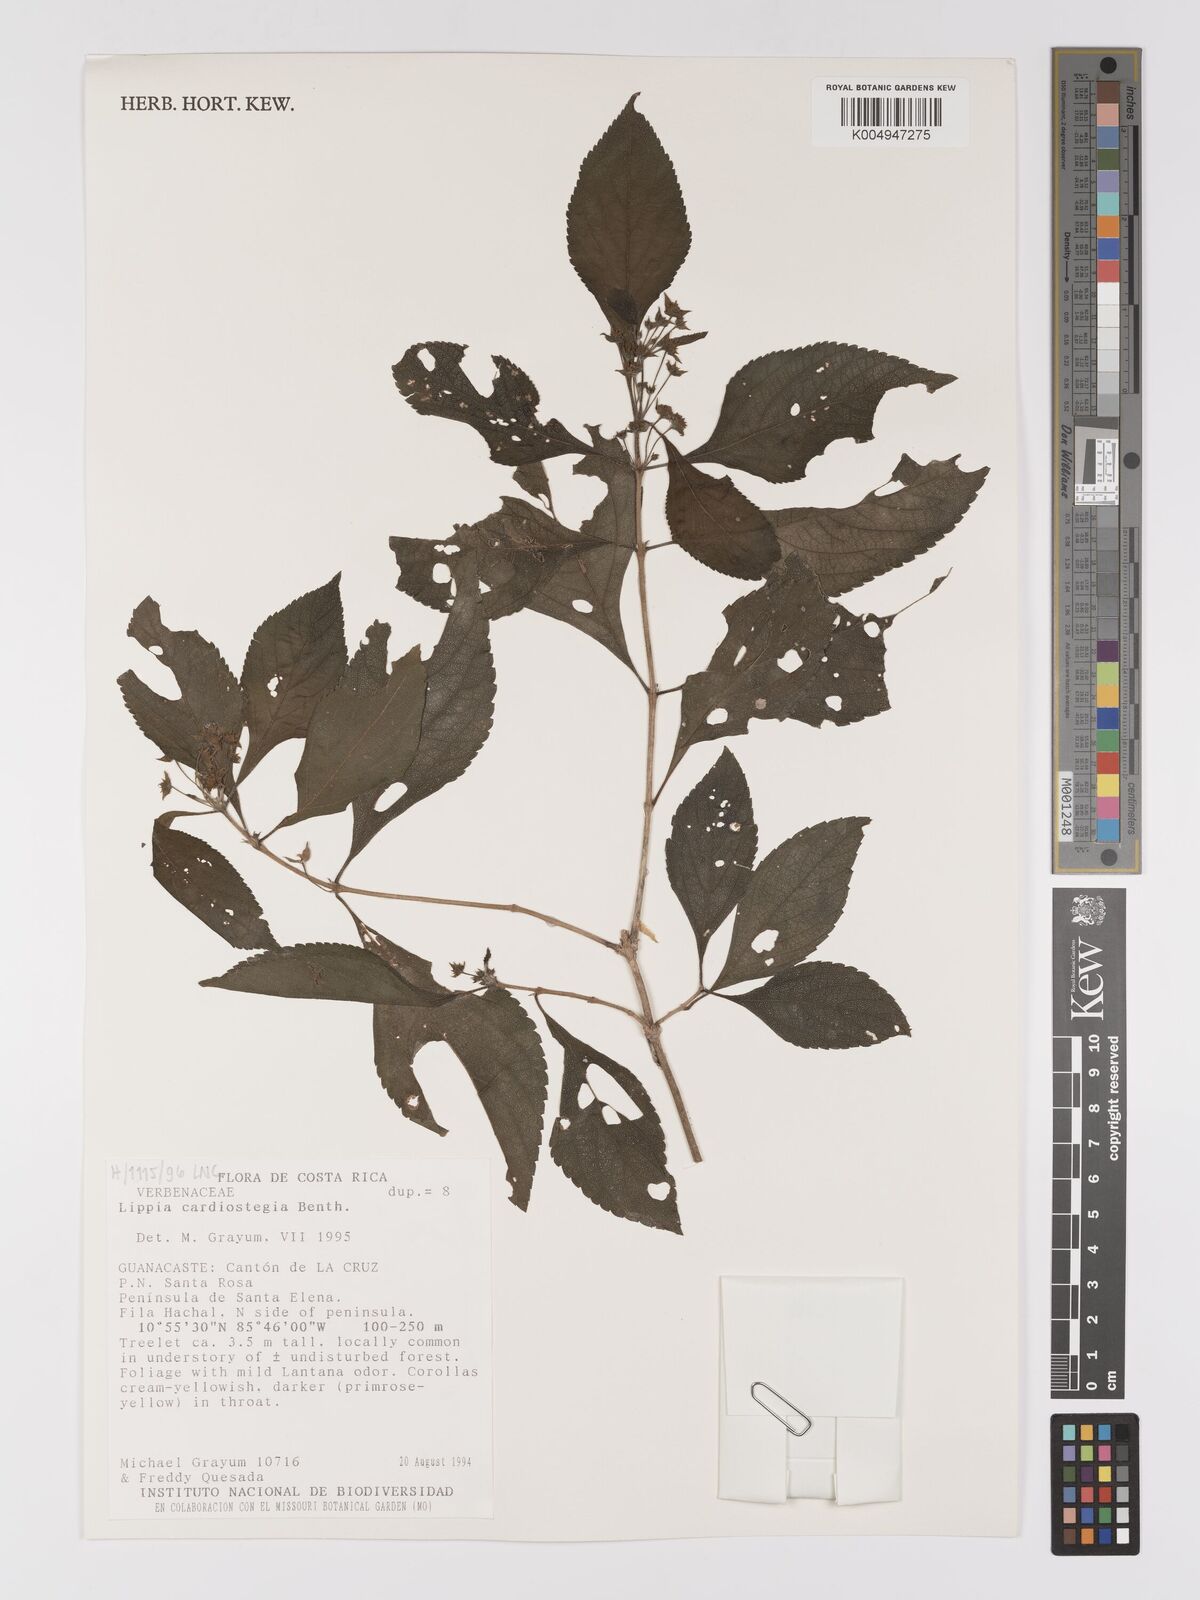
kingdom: Plantae
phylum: Tracheophyta
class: Magnoliopsida
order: Lamiales
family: Verbenaceae
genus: Lippia
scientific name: Lippia cardiostegia
